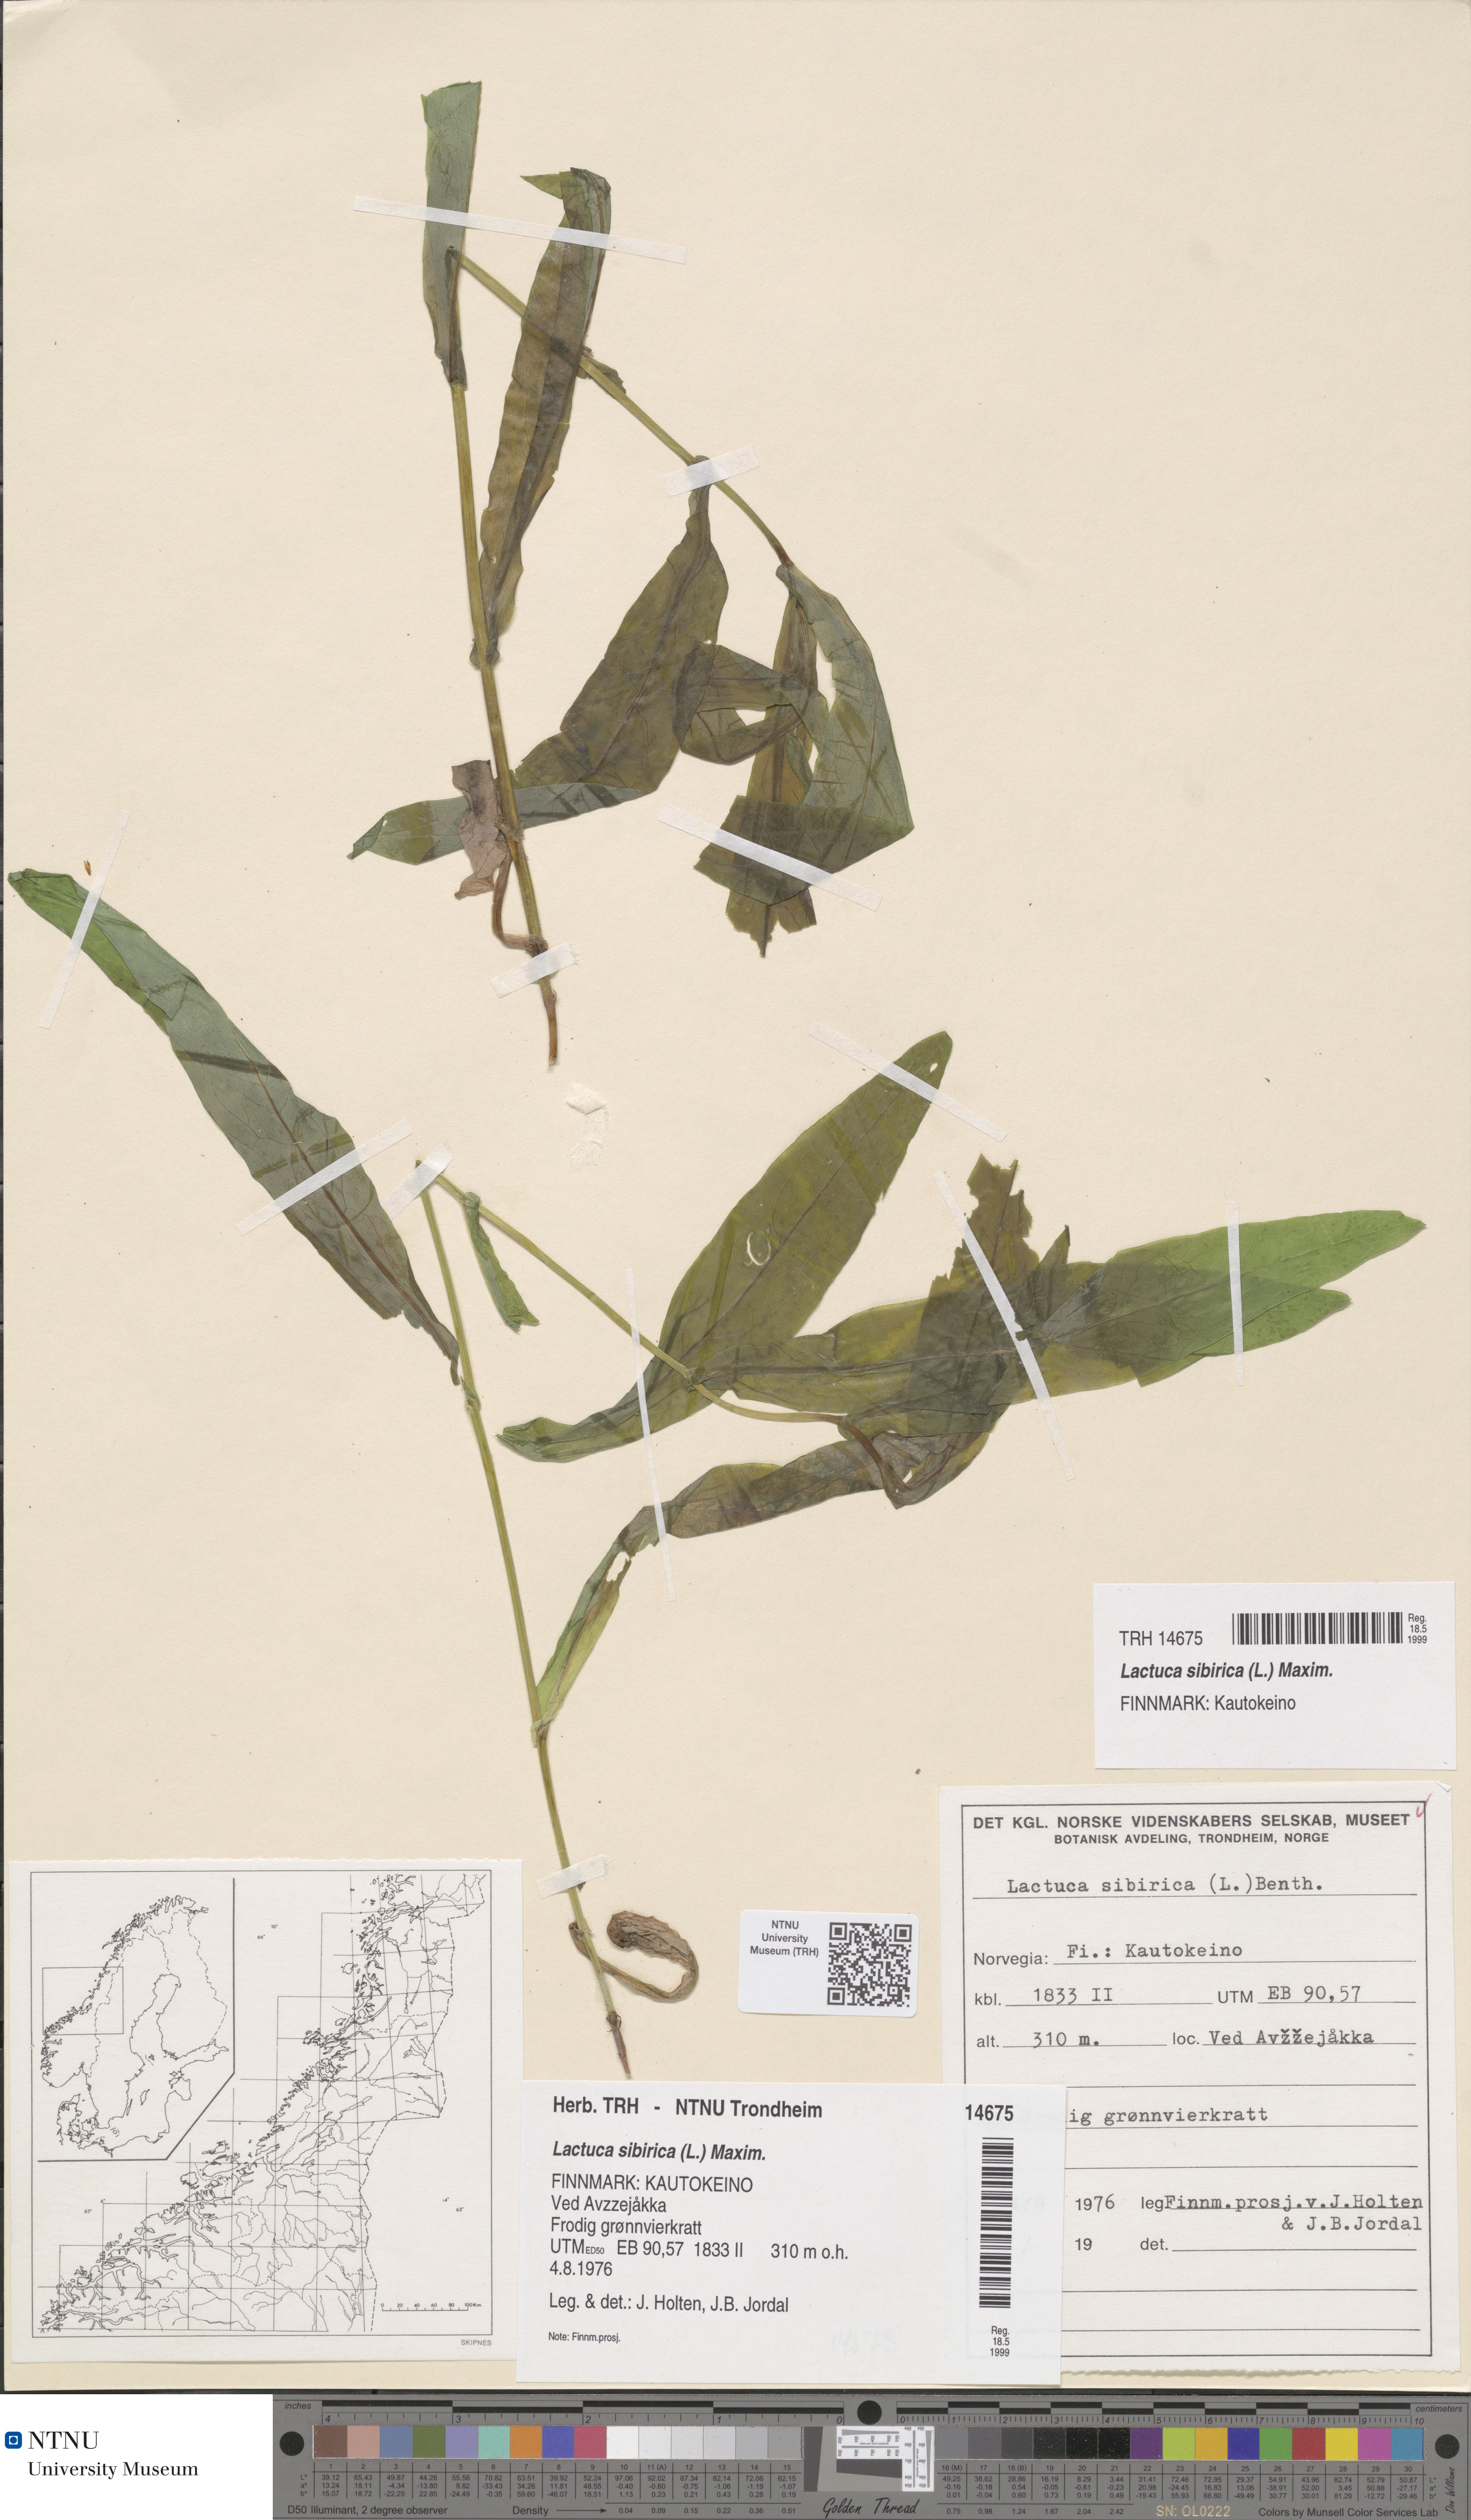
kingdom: Plantae
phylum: Tracheophyta
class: Magnoliopsida
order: Asterales
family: Asteraceae
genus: Lactuca
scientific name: Lactuca sibirica
